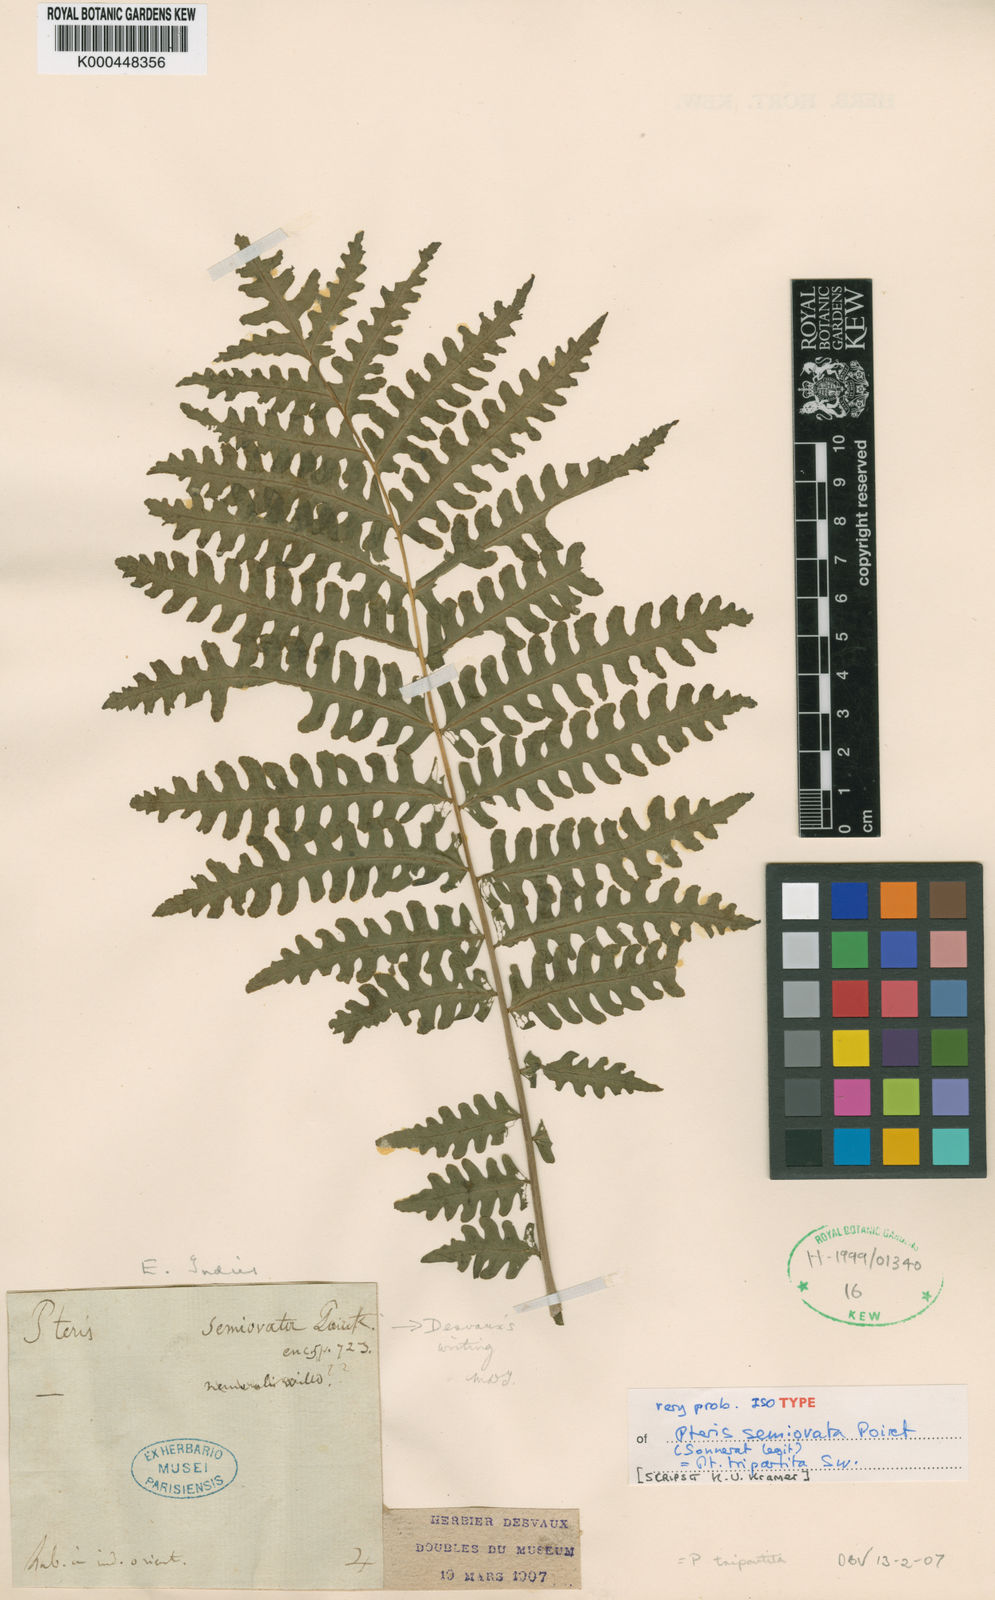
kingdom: Plantae
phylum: Tracheophyta
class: Polypodiopsida
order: Polypodiales
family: Pteridaceae
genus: Pteris
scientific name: Pteris tripartita
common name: Giant brake
